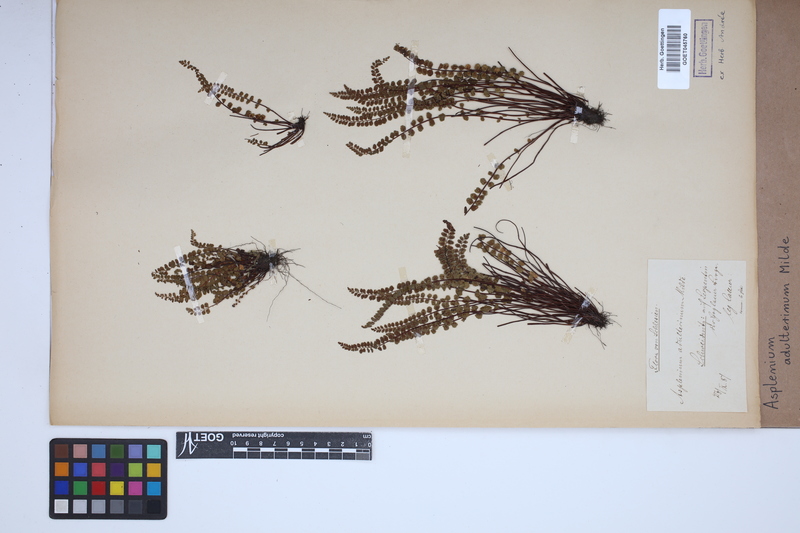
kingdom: Plantae
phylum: Tracheophyta
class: Polypodiopsida
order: Polypodiales
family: Aspleniaceae
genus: Asplenium
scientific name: Asplenium adulterinum
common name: Adulterated spleenwort
